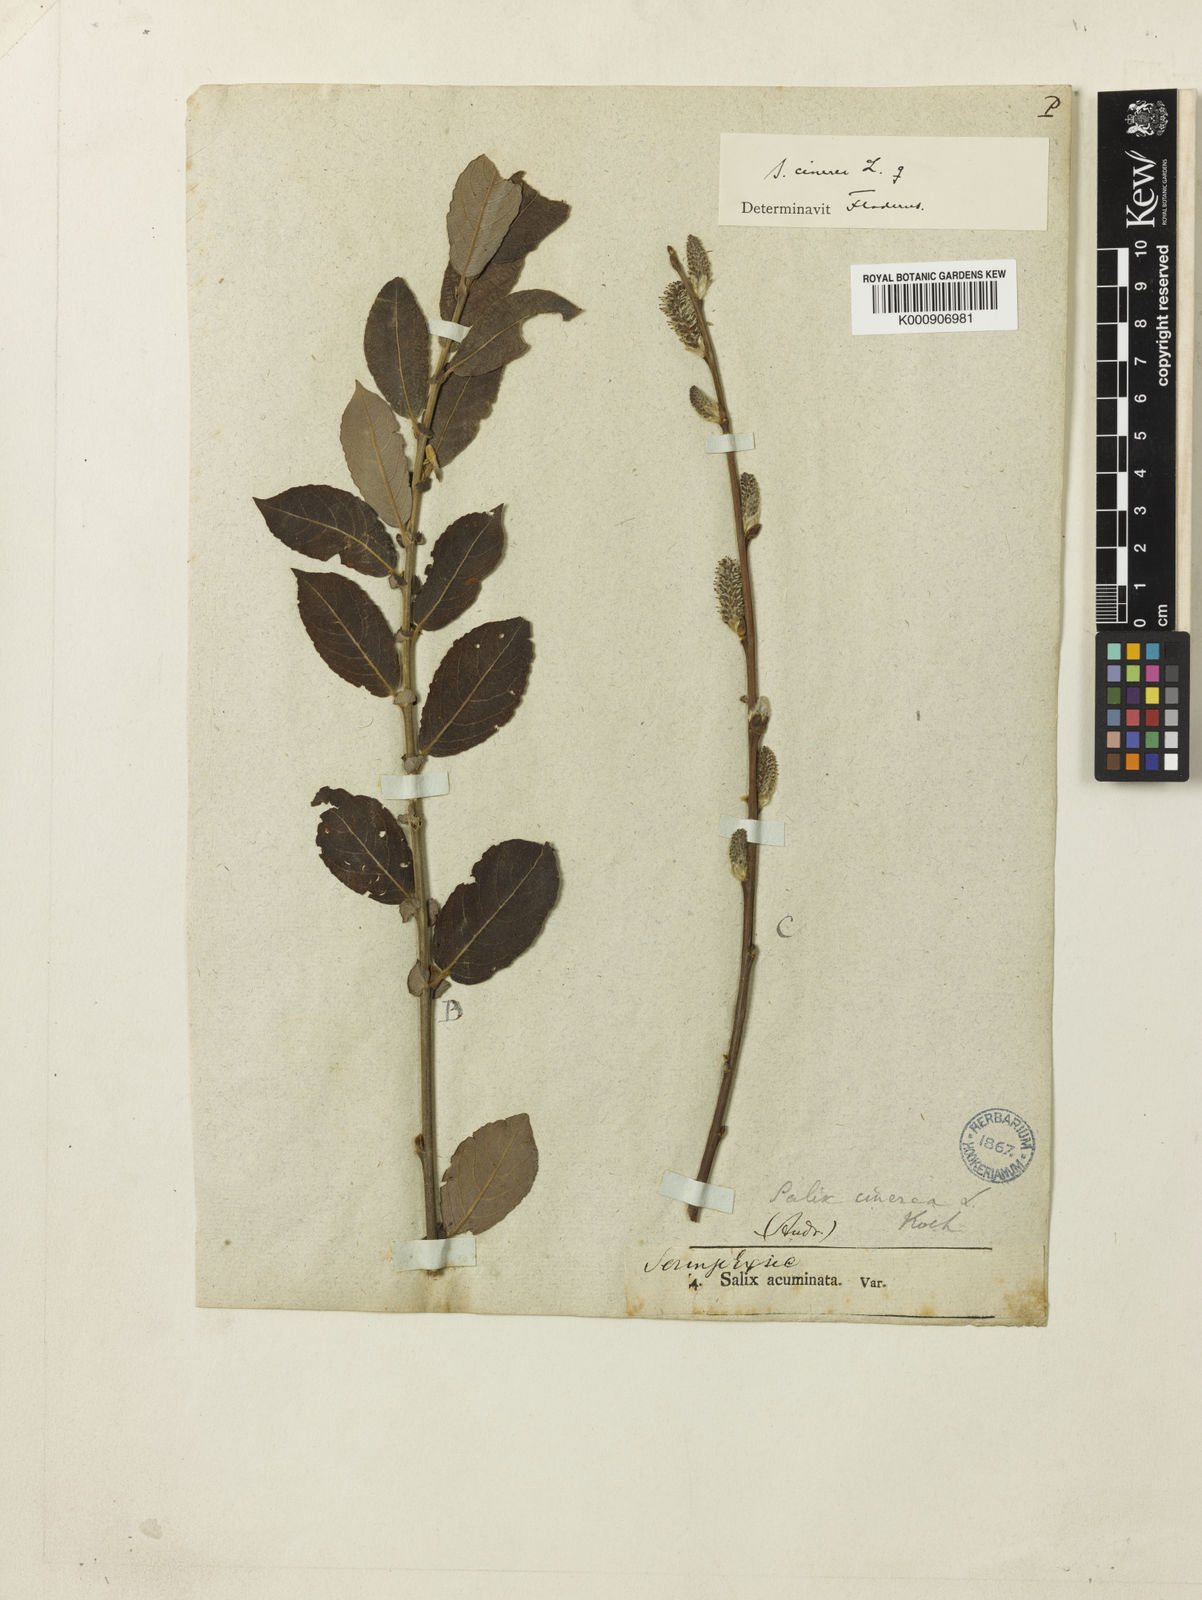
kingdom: Plantae
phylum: Tracheophyta
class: Magnoliopsida
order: Malpighiales
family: Salicaceae
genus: Salix
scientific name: Salix cinerea
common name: Common sallow
